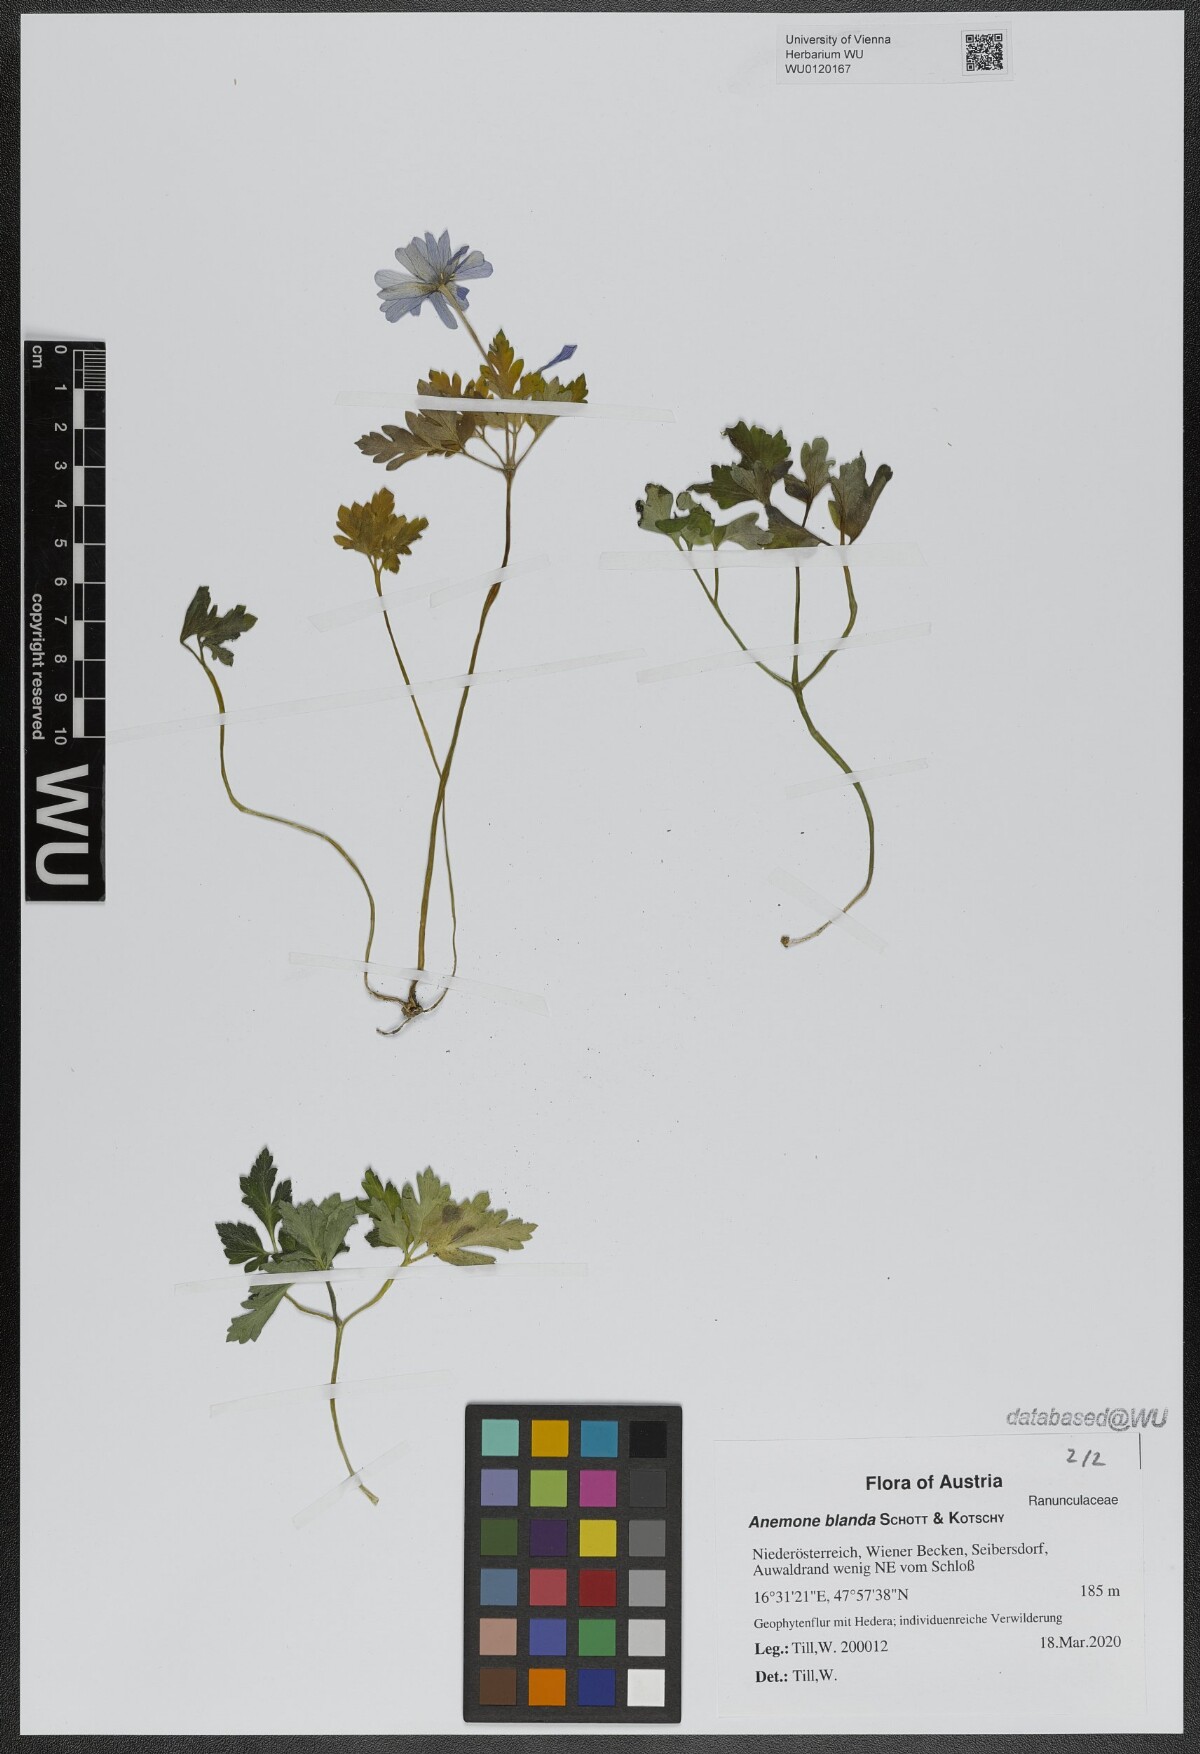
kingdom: Plantae
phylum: Tracheophyta
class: Magnoliopsida
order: Ranunculales
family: Ranunculaceae
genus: Anemone
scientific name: Anemone blanda
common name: Balkan anemone
